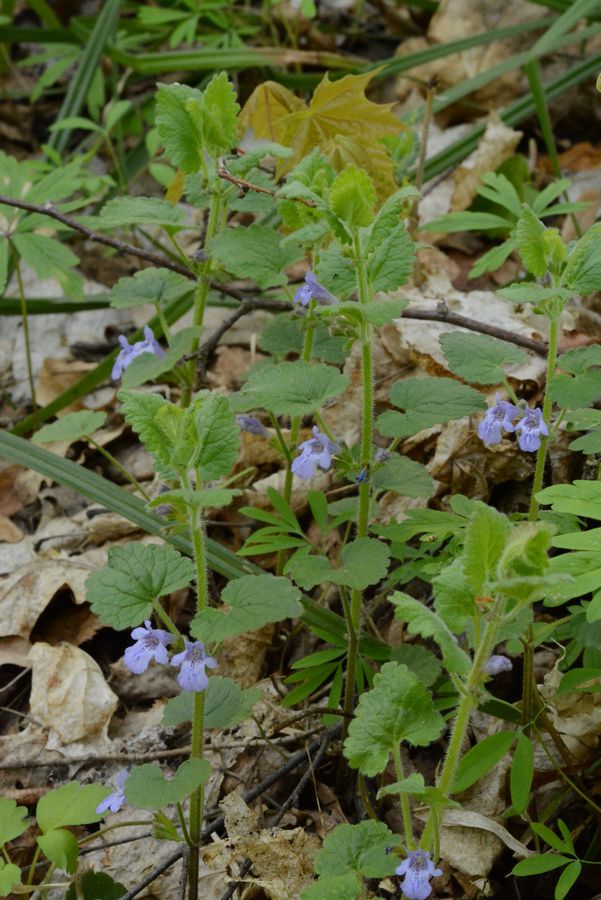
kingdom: Plantae
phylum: Tracheophyta
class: Magnoliopsida
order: Lamiales
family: Lamiaceae
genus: Glechoma
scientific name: Glechoma hederacea
